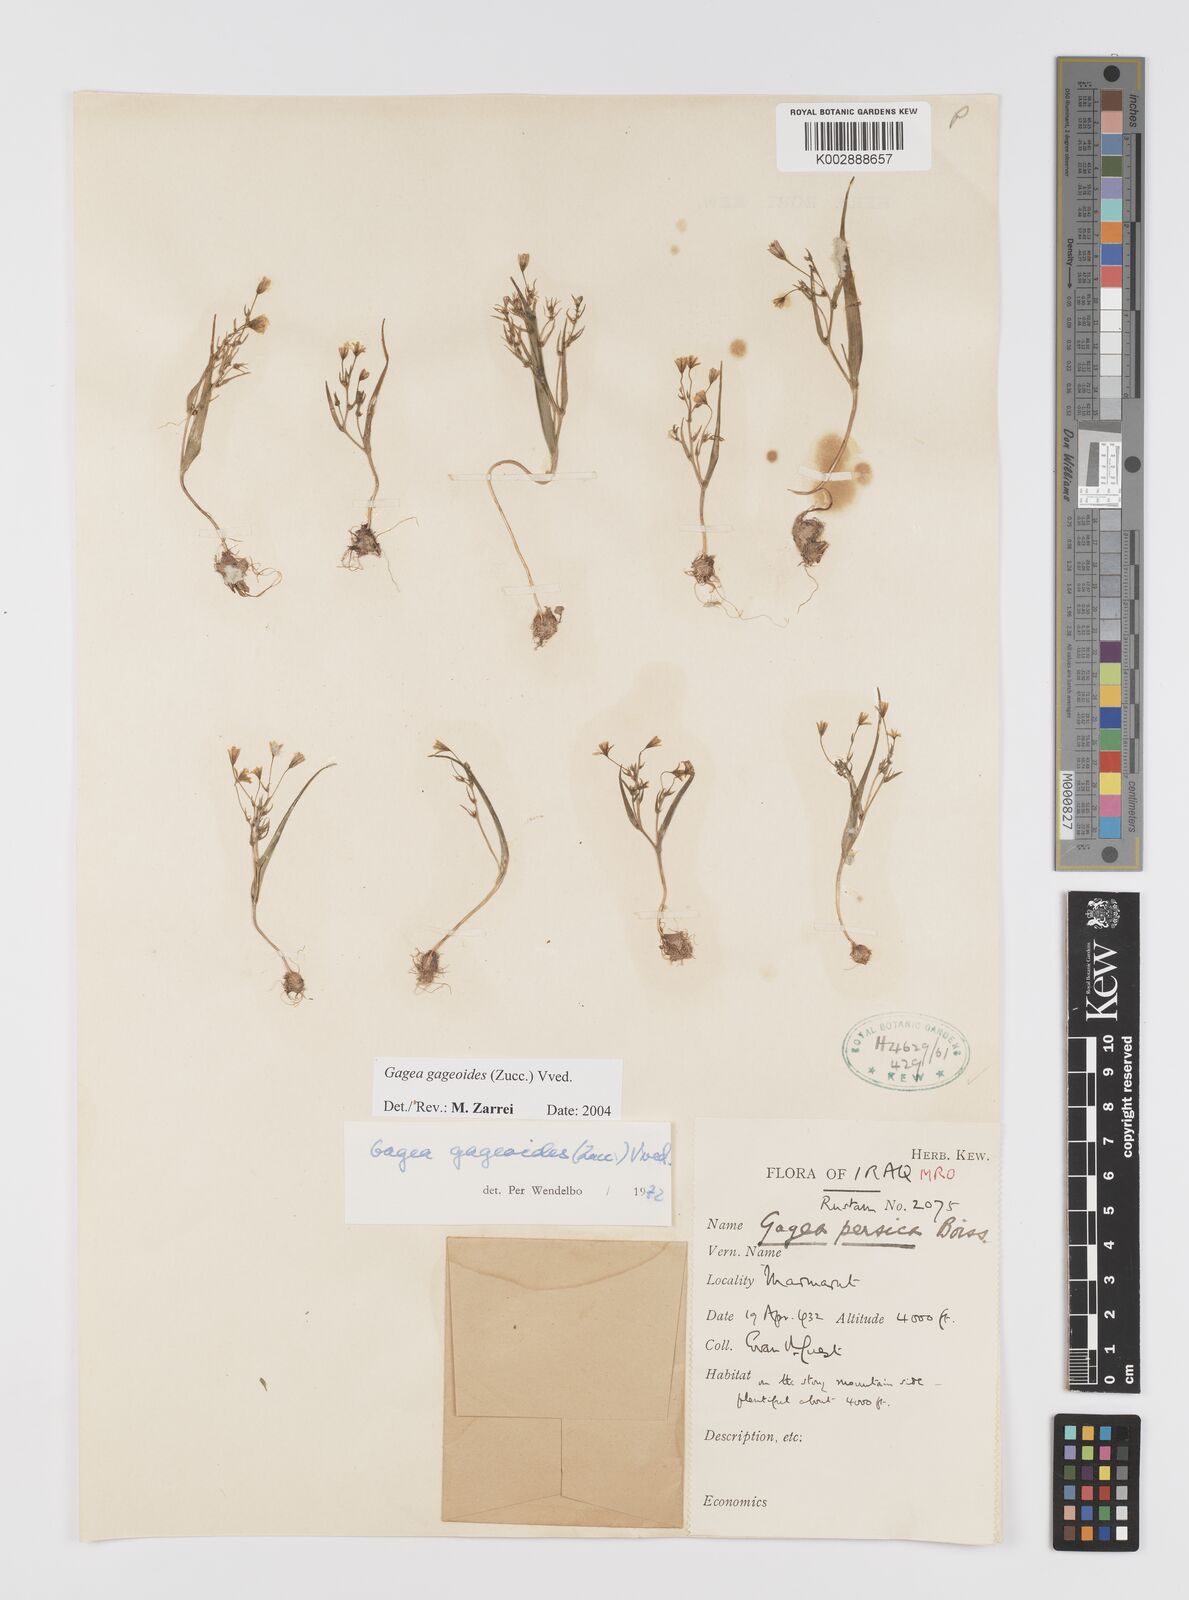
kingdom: Plantae
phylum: Tracheophyta
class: Liliopsida
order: Liliales
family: Liliaceae
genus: Gagea
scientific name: Gagea gageoides
